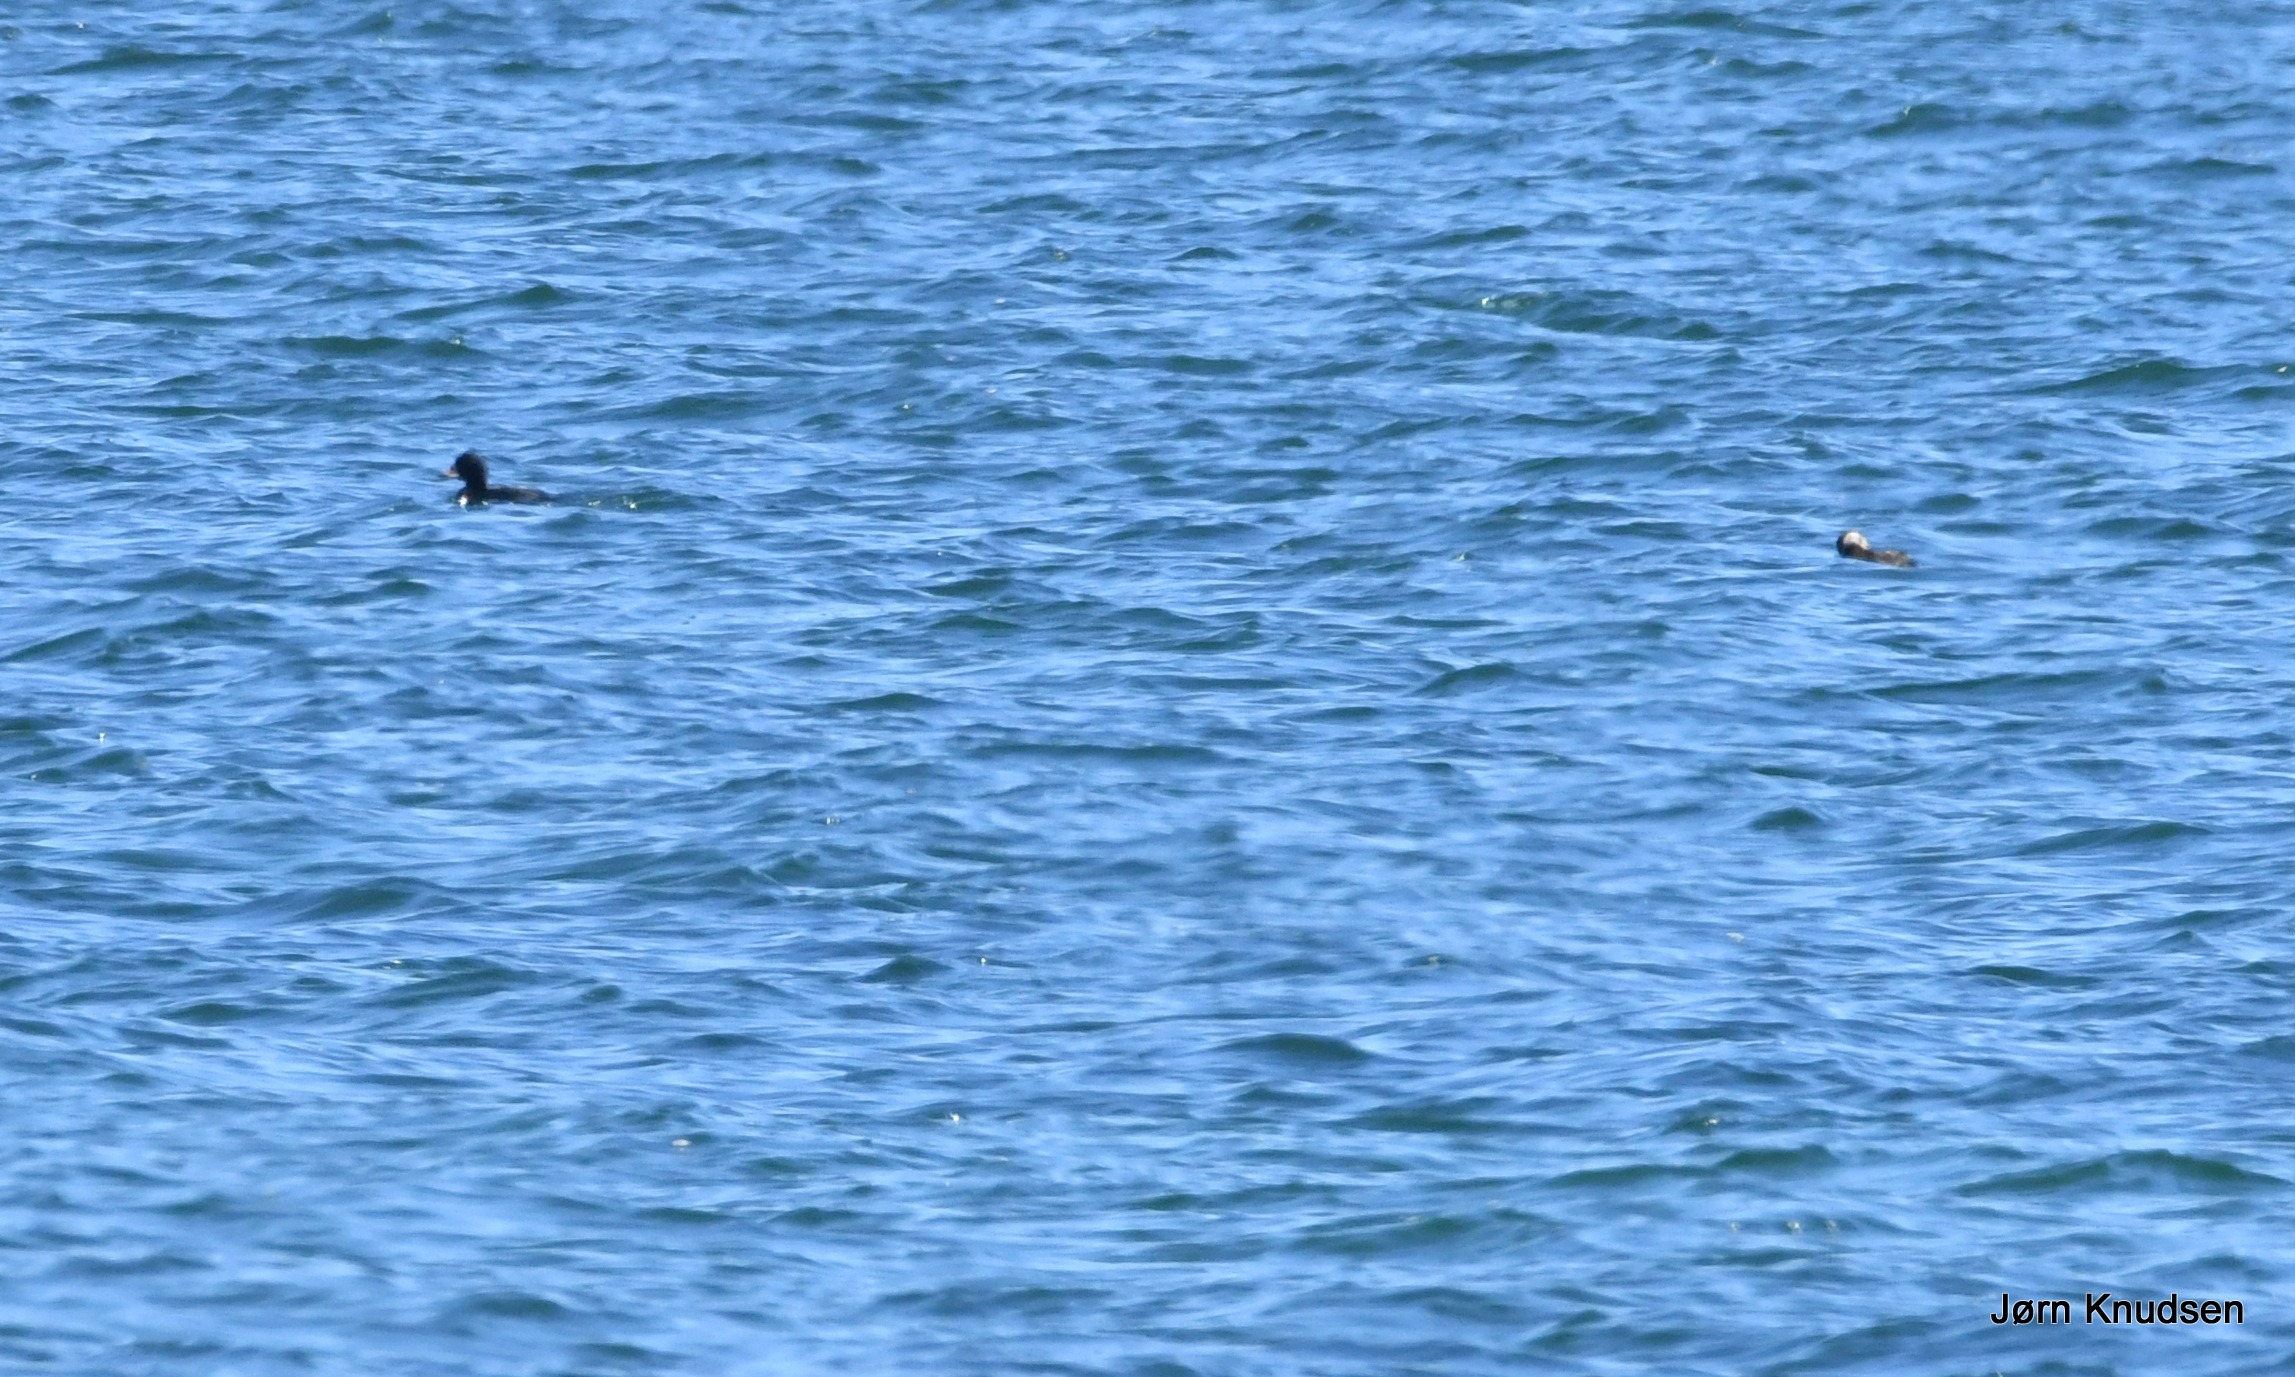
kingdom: Animalia
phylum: Chordata
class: Aves
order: Anseriformes
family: Anatidae
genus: Melanitta
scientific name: Melanitta nigra
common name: Sortand
